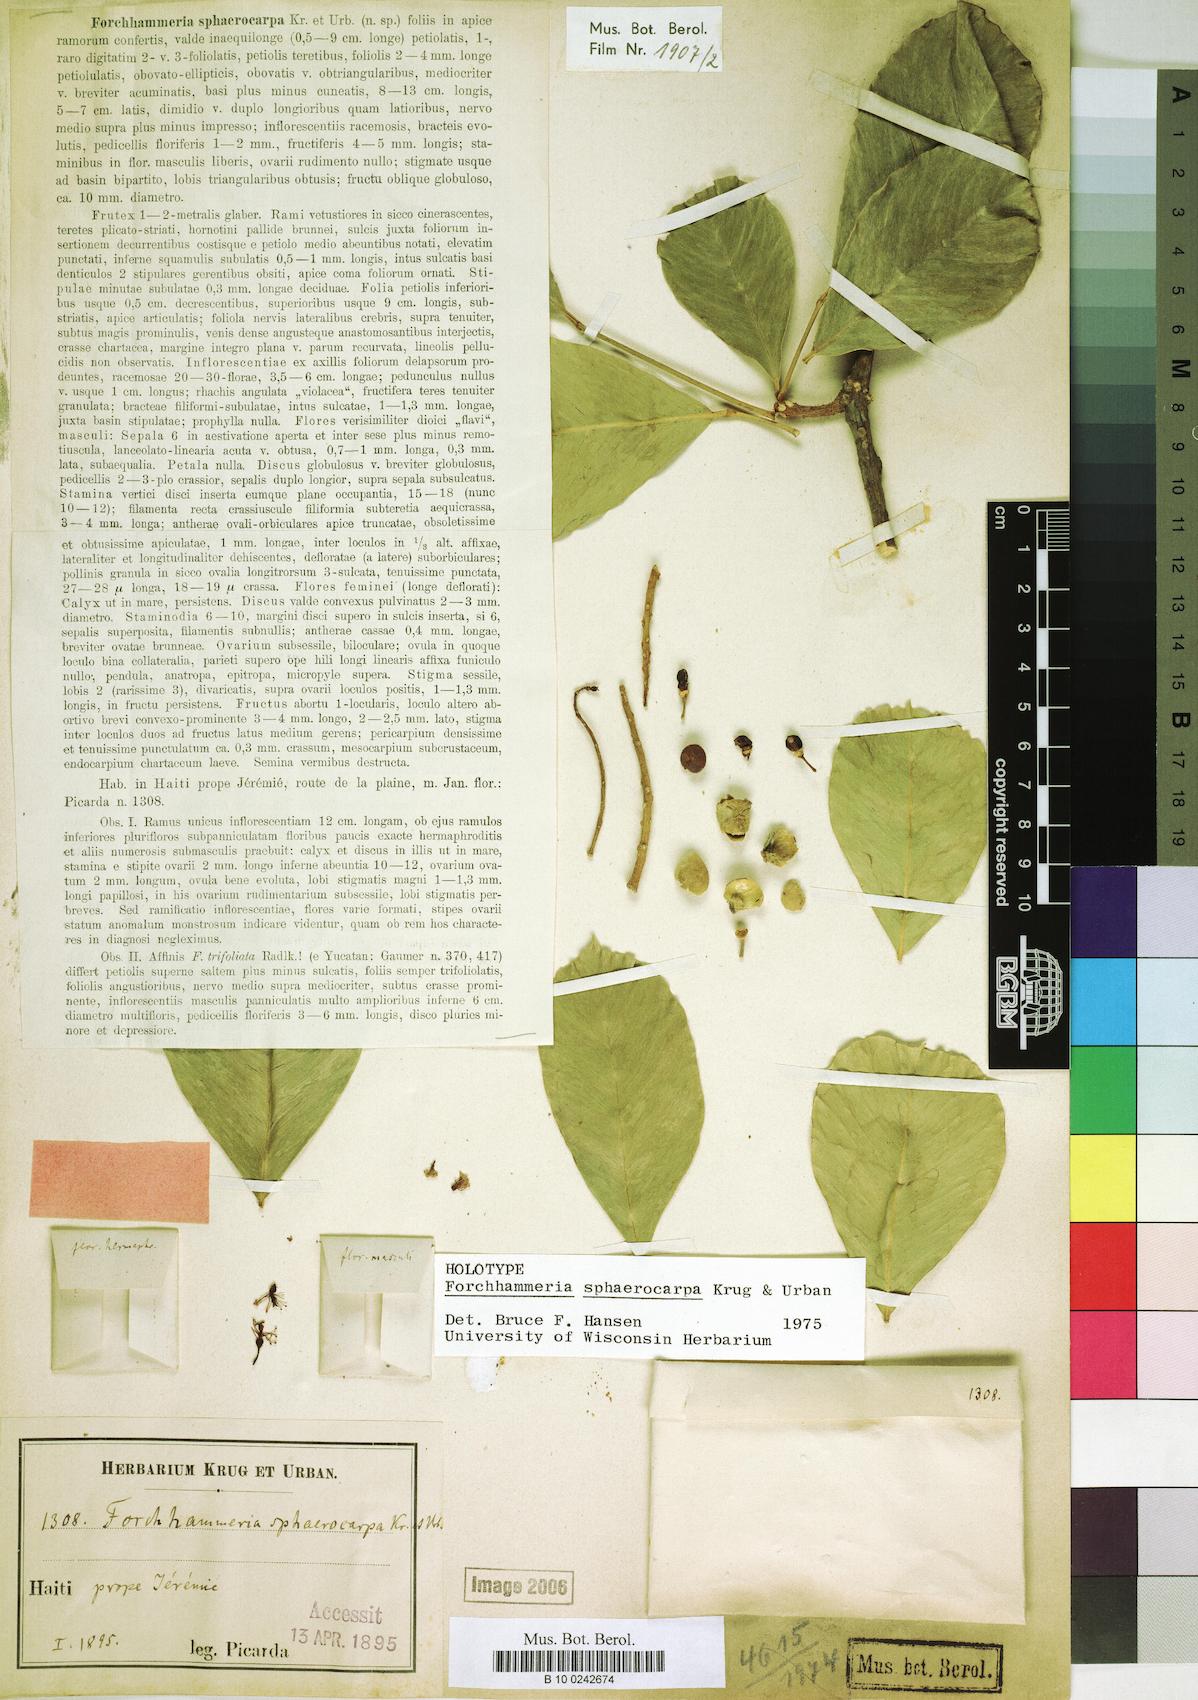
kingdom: Plantae
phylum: Tracheophyta
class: Magnoliopsida
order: Brassicales
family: Stixaceae
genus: Forchhammeria
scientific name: Forchhammeria sphaerocarpa
